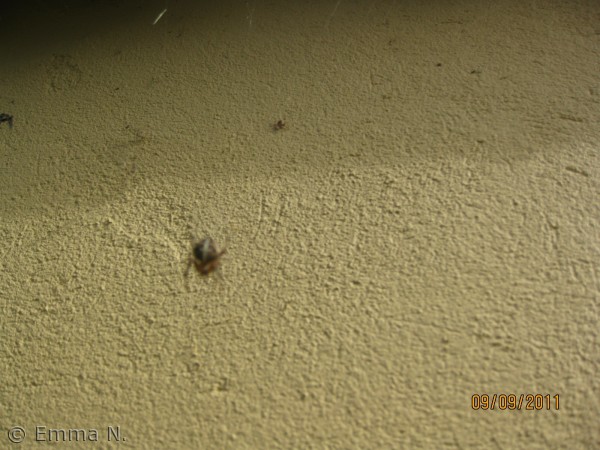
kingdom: Animalia
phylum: Arthropoda
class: Arachnida
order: Araneae
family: Araneidae
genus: Araneus
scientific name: Araneus diadematus
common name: Korsedderkop
